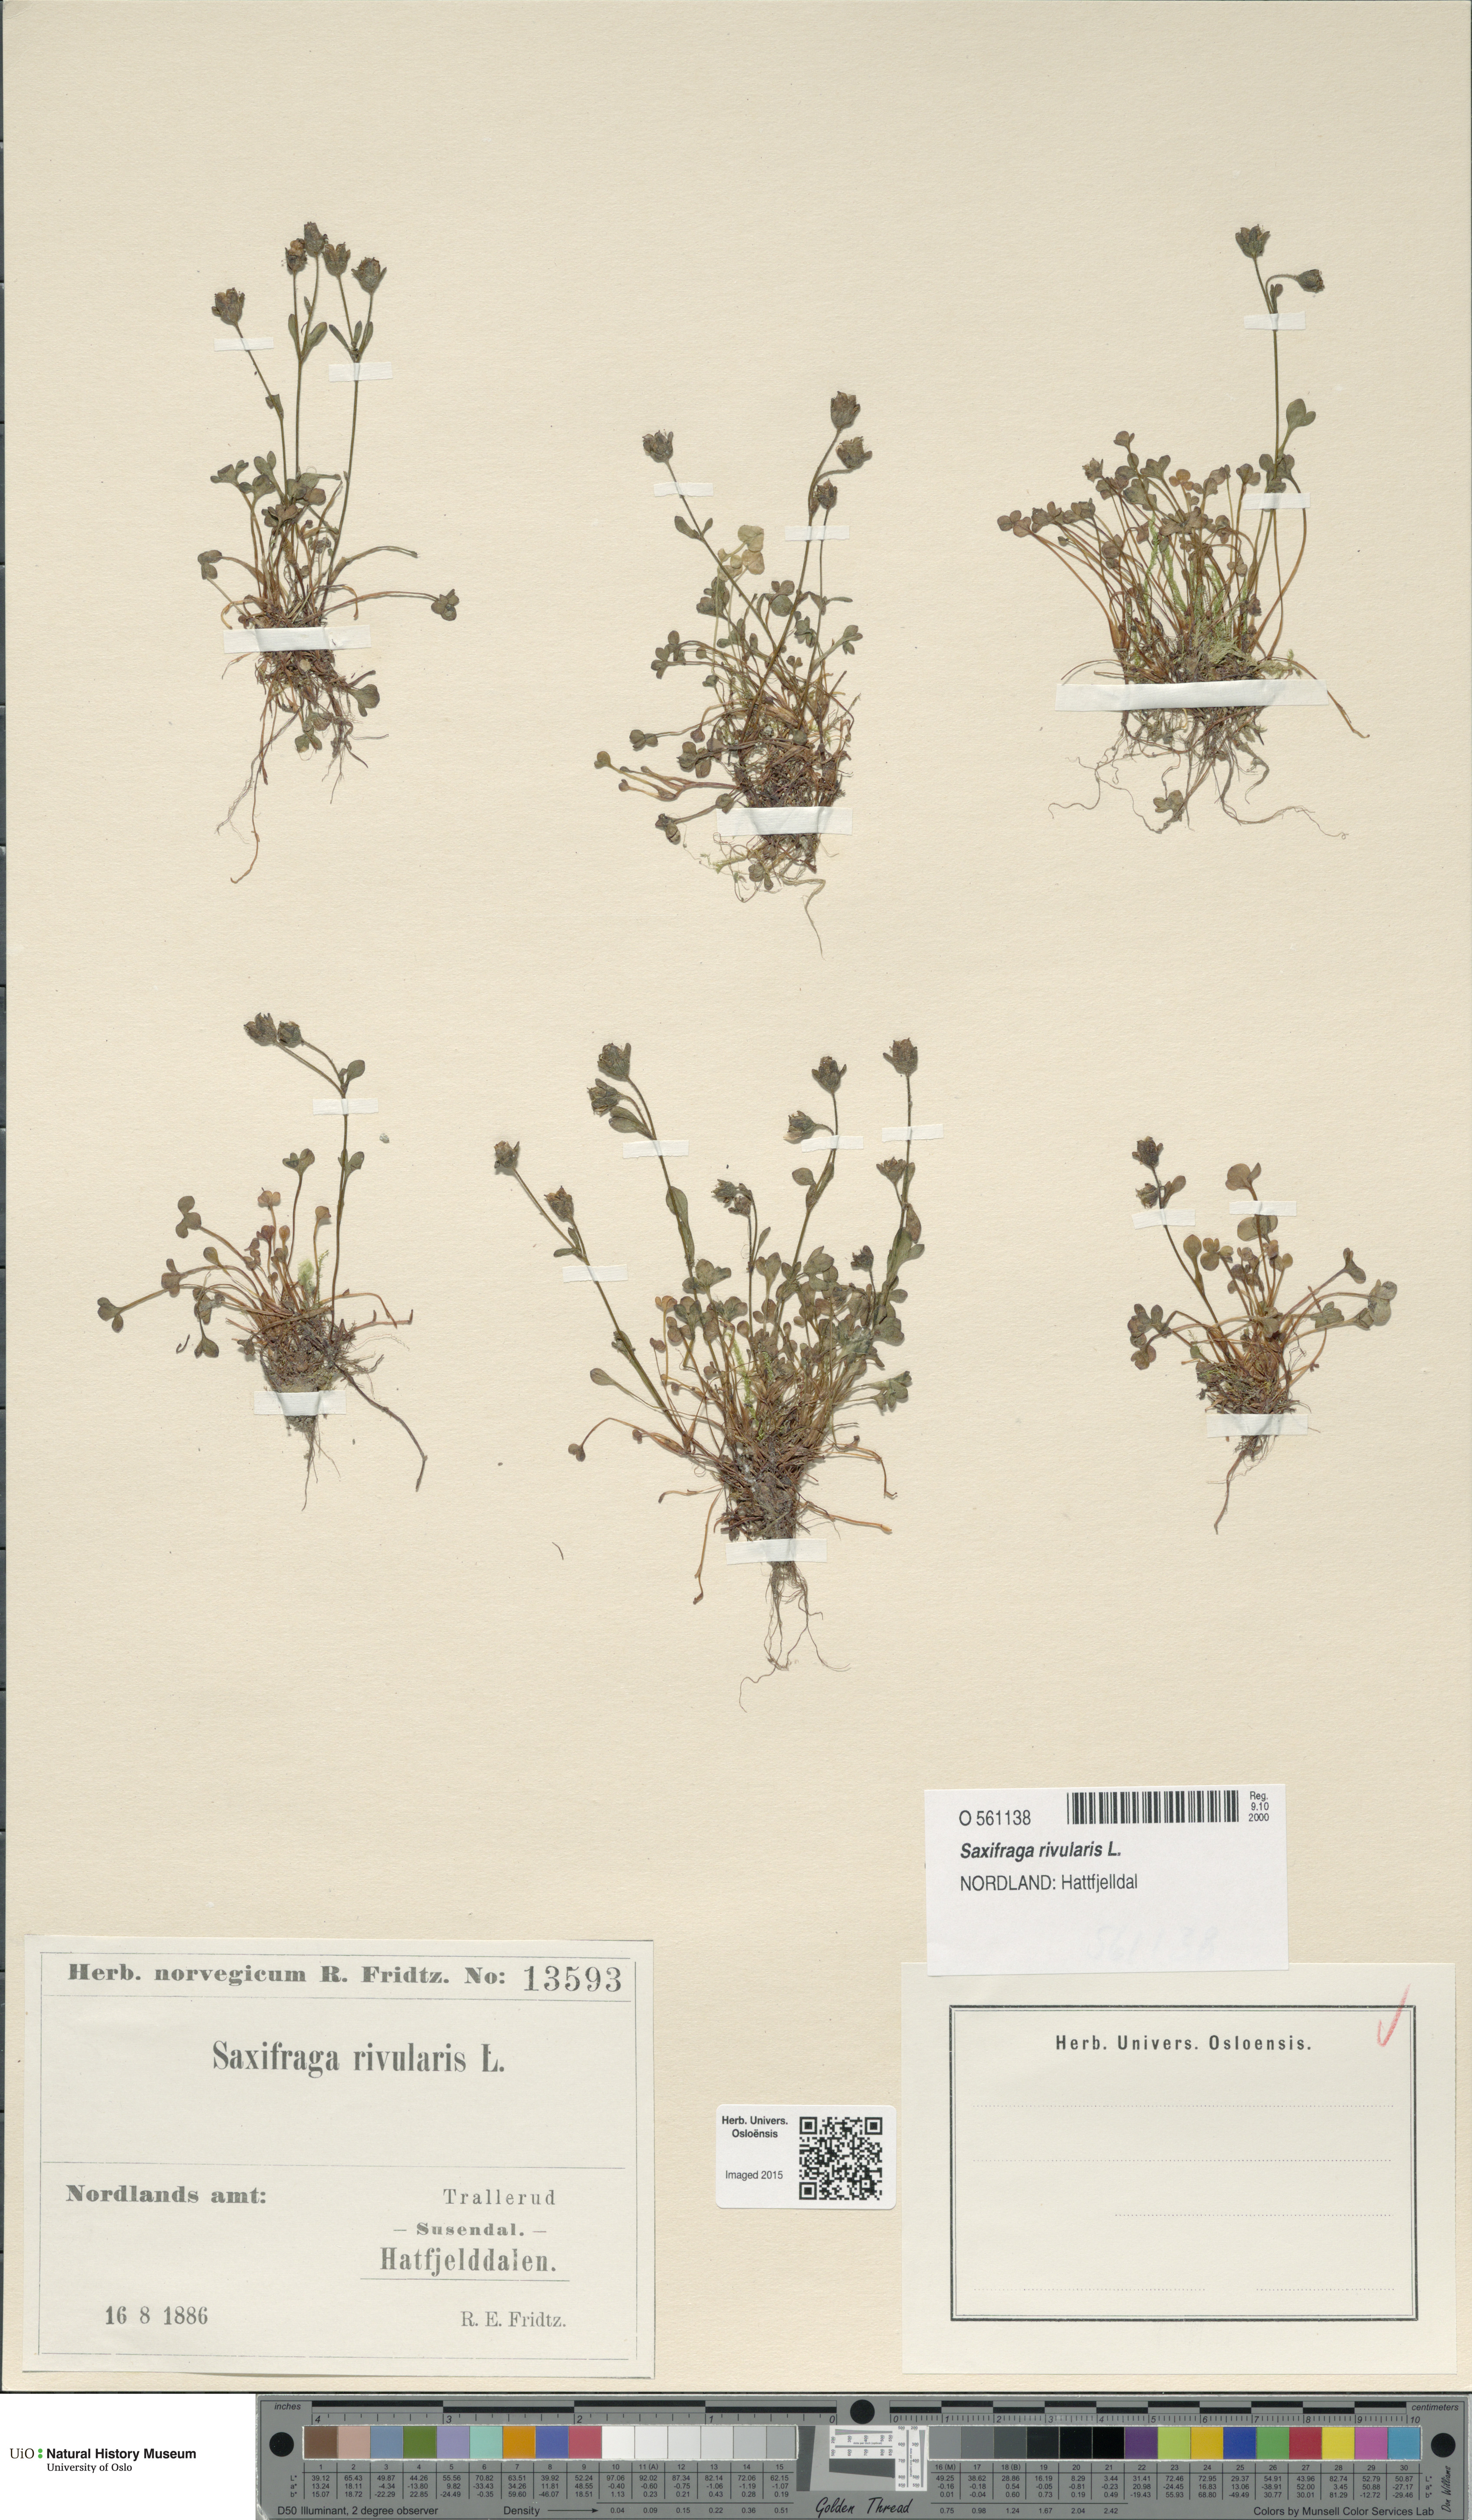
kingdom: Plantae
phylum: Tracheophyta
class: Magnoliopsida
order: Saxifragales
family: Saxifragaceae
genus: Saxifraga
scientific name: Saxifraga rivularis
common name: Highland saxifrage
